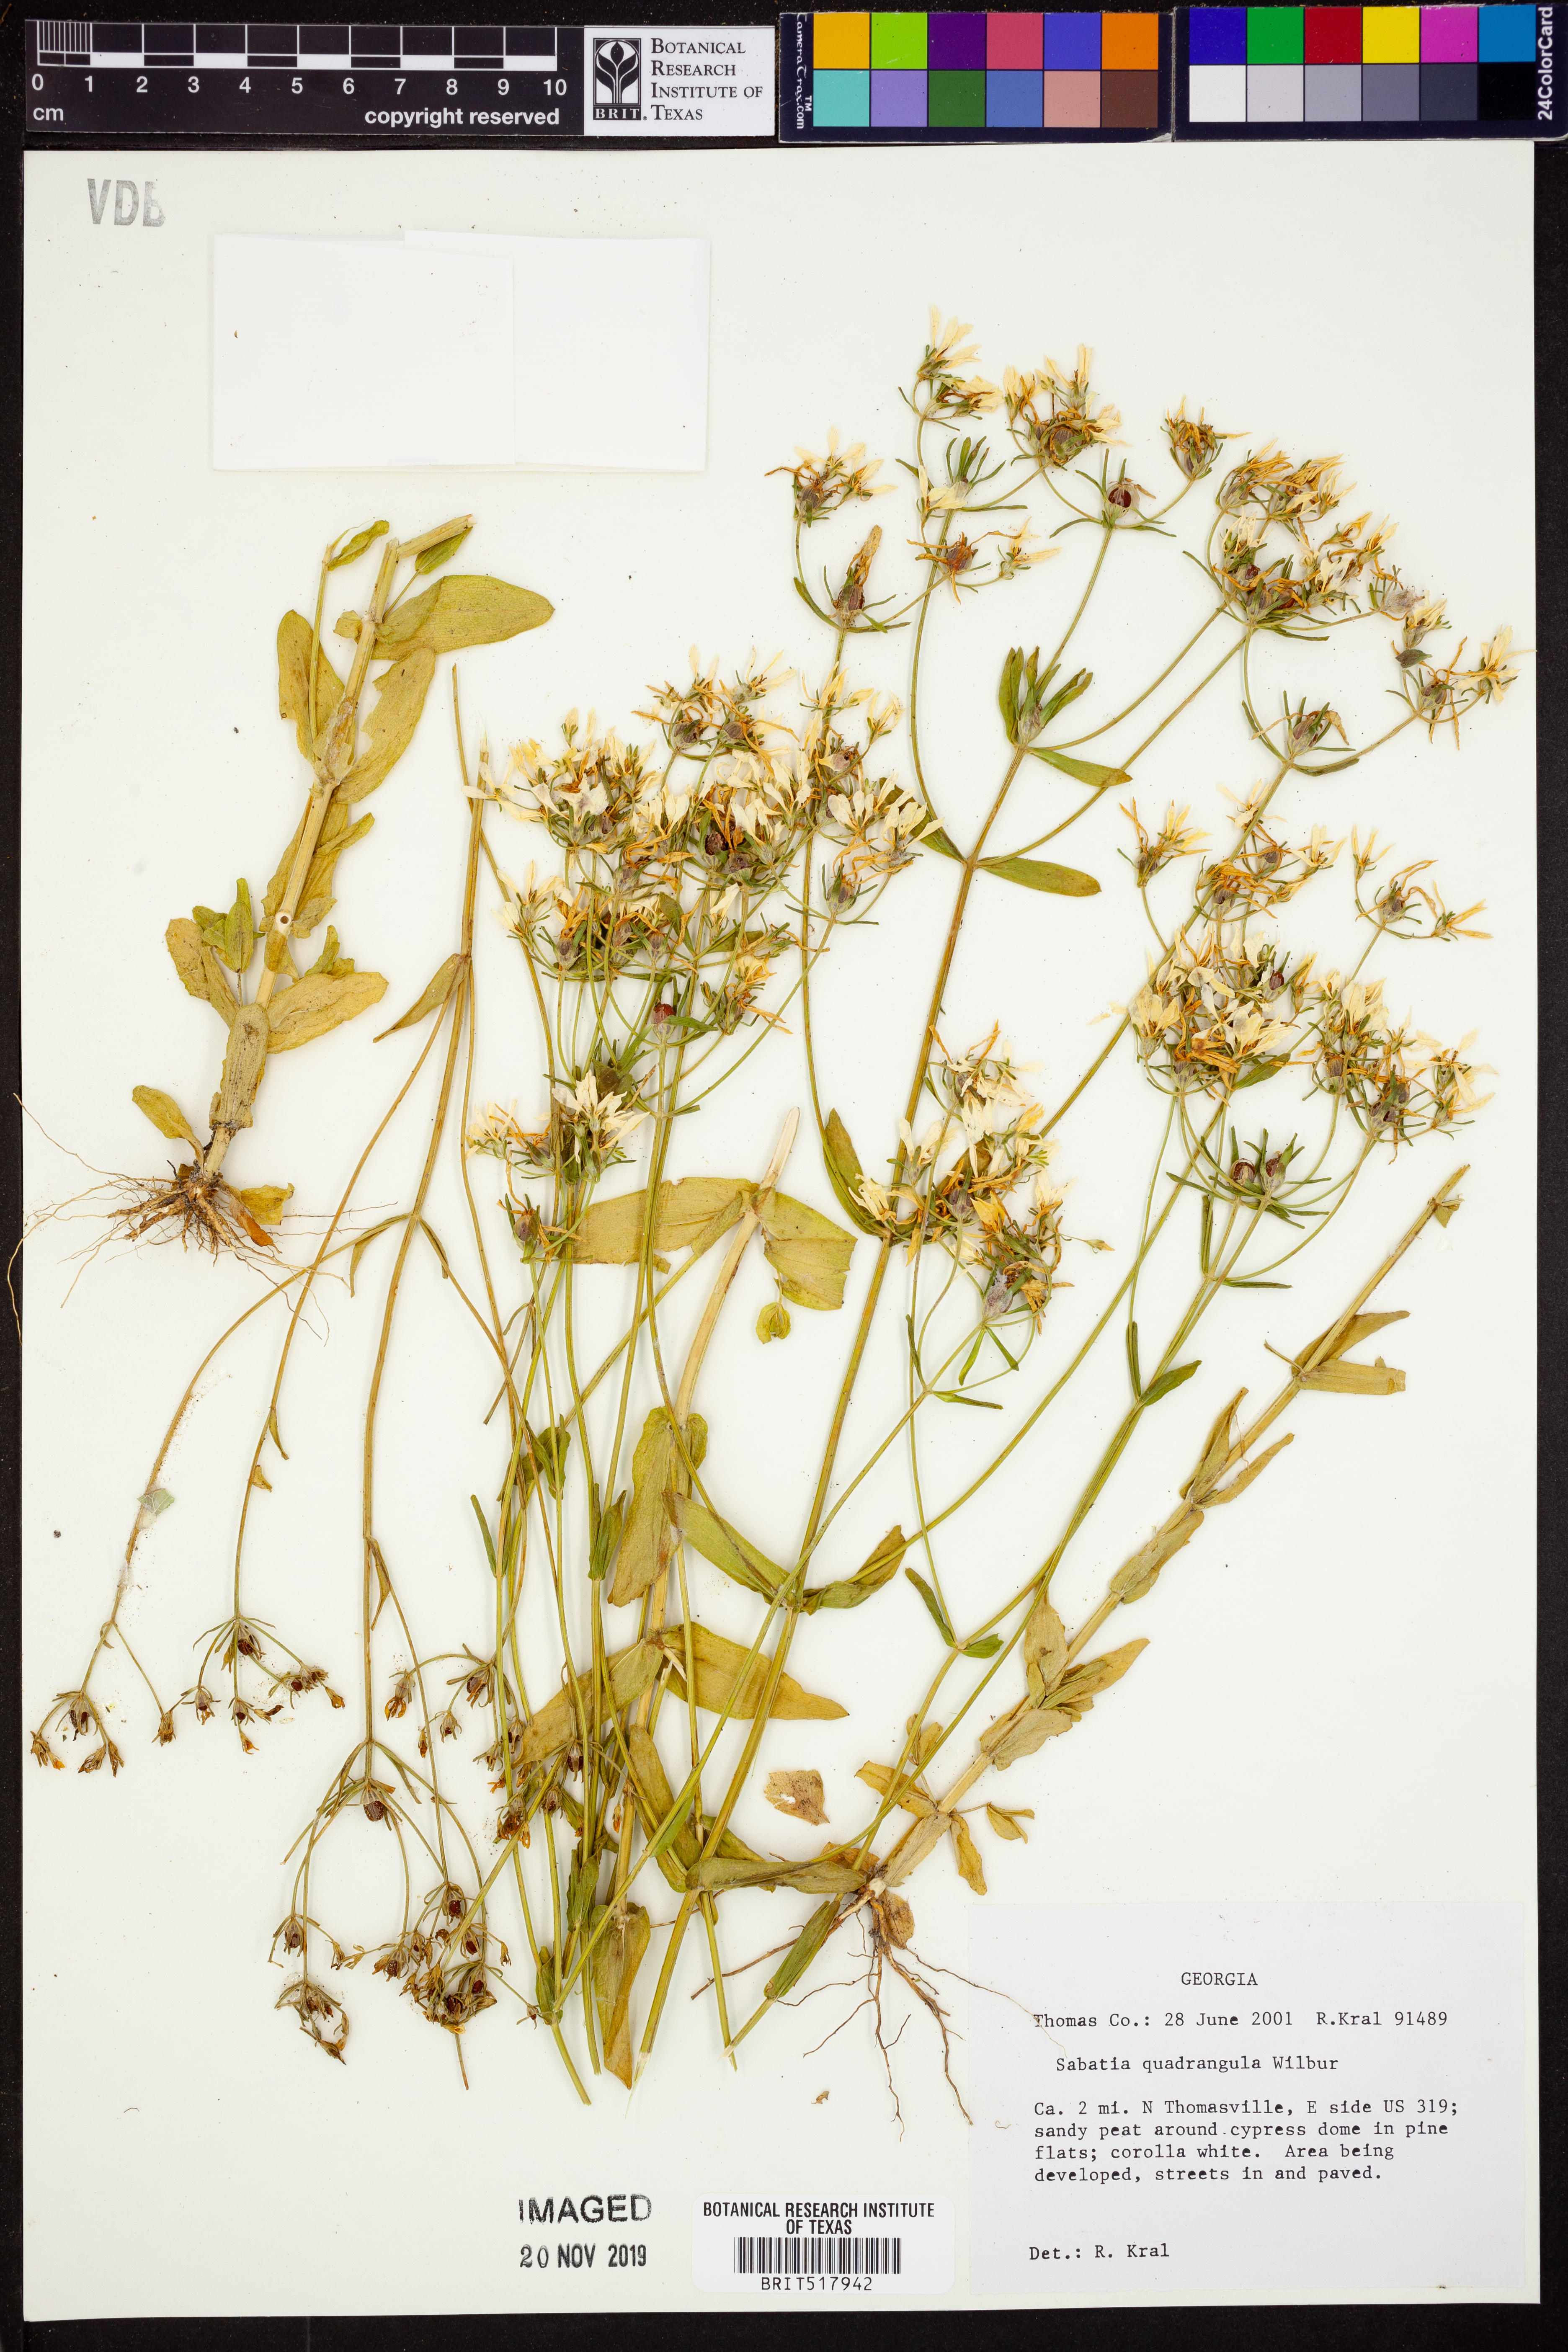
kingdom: Plantae
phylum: Tracheophyta
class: Magnoliopsida
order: Gentianales
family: Gentianaceae
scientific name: Gentianaceae
